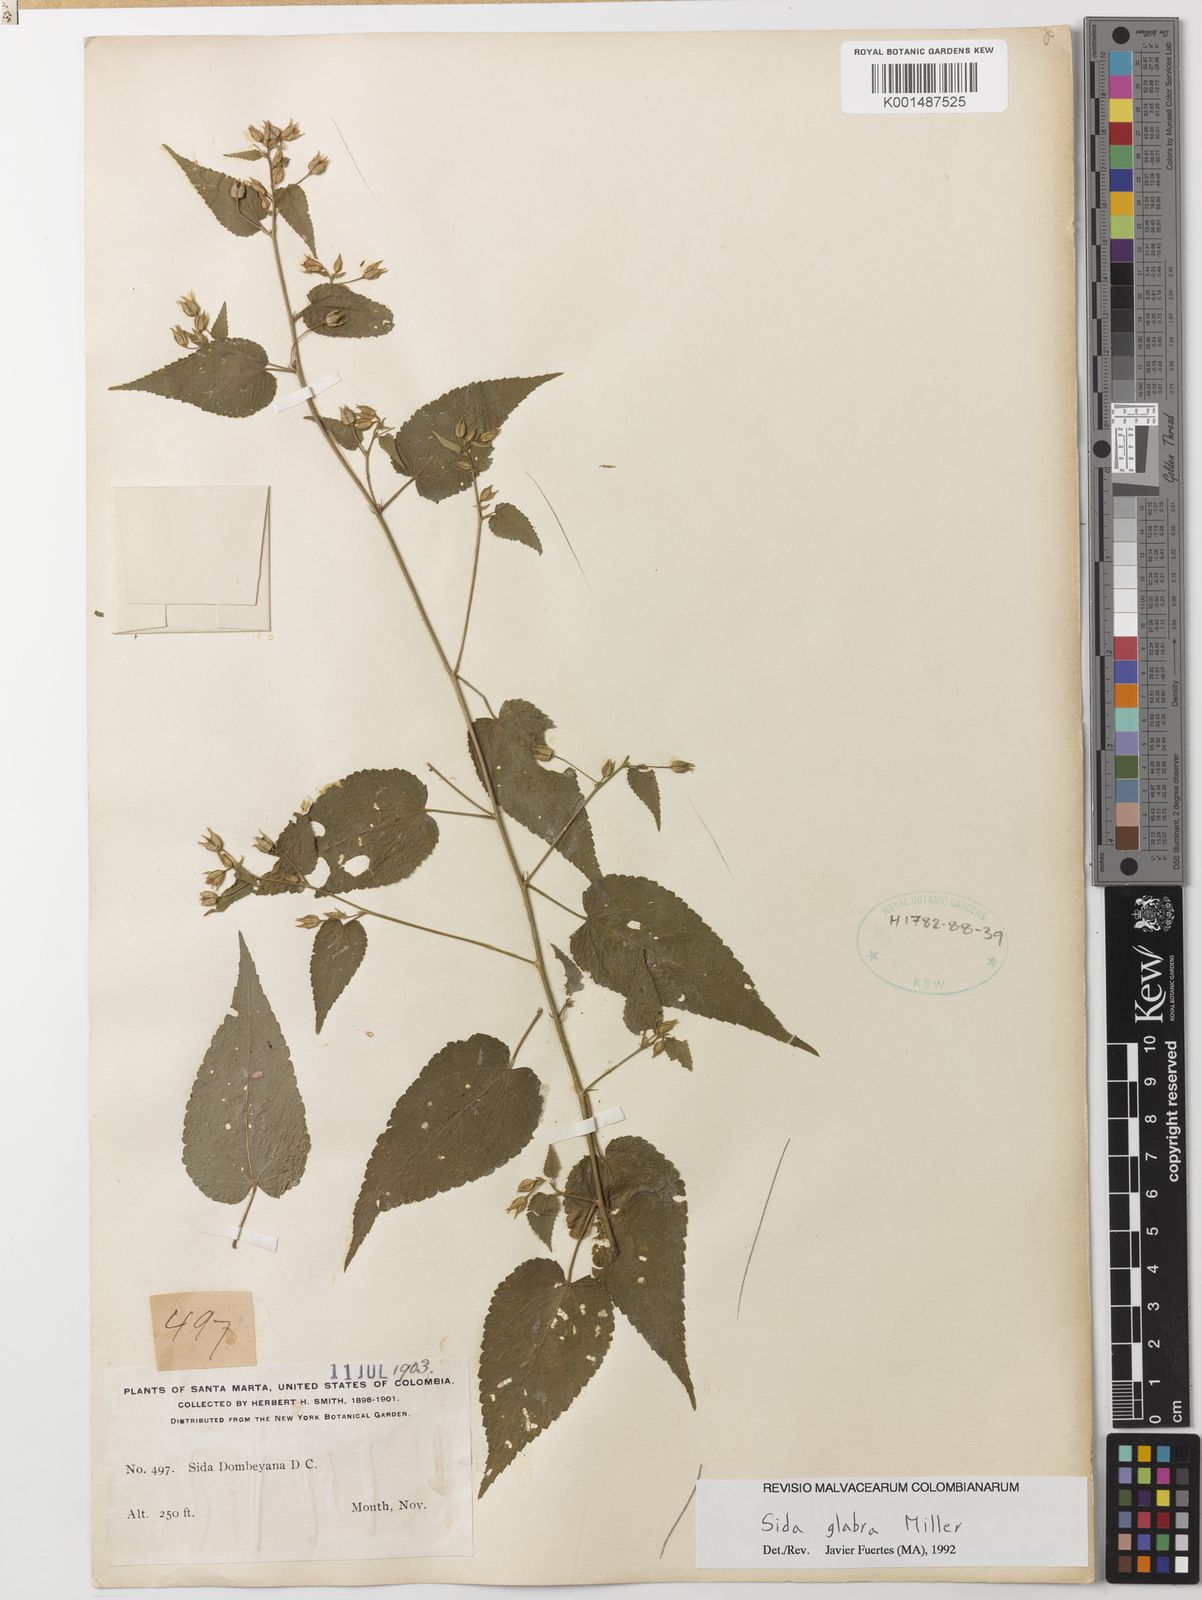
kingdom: Plantae
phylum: Tracheophyta
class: Magnoliopsida
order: Malvales
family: Malvaceae
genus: Sida
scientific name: Sida glabra
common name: Smooth fanpetals
